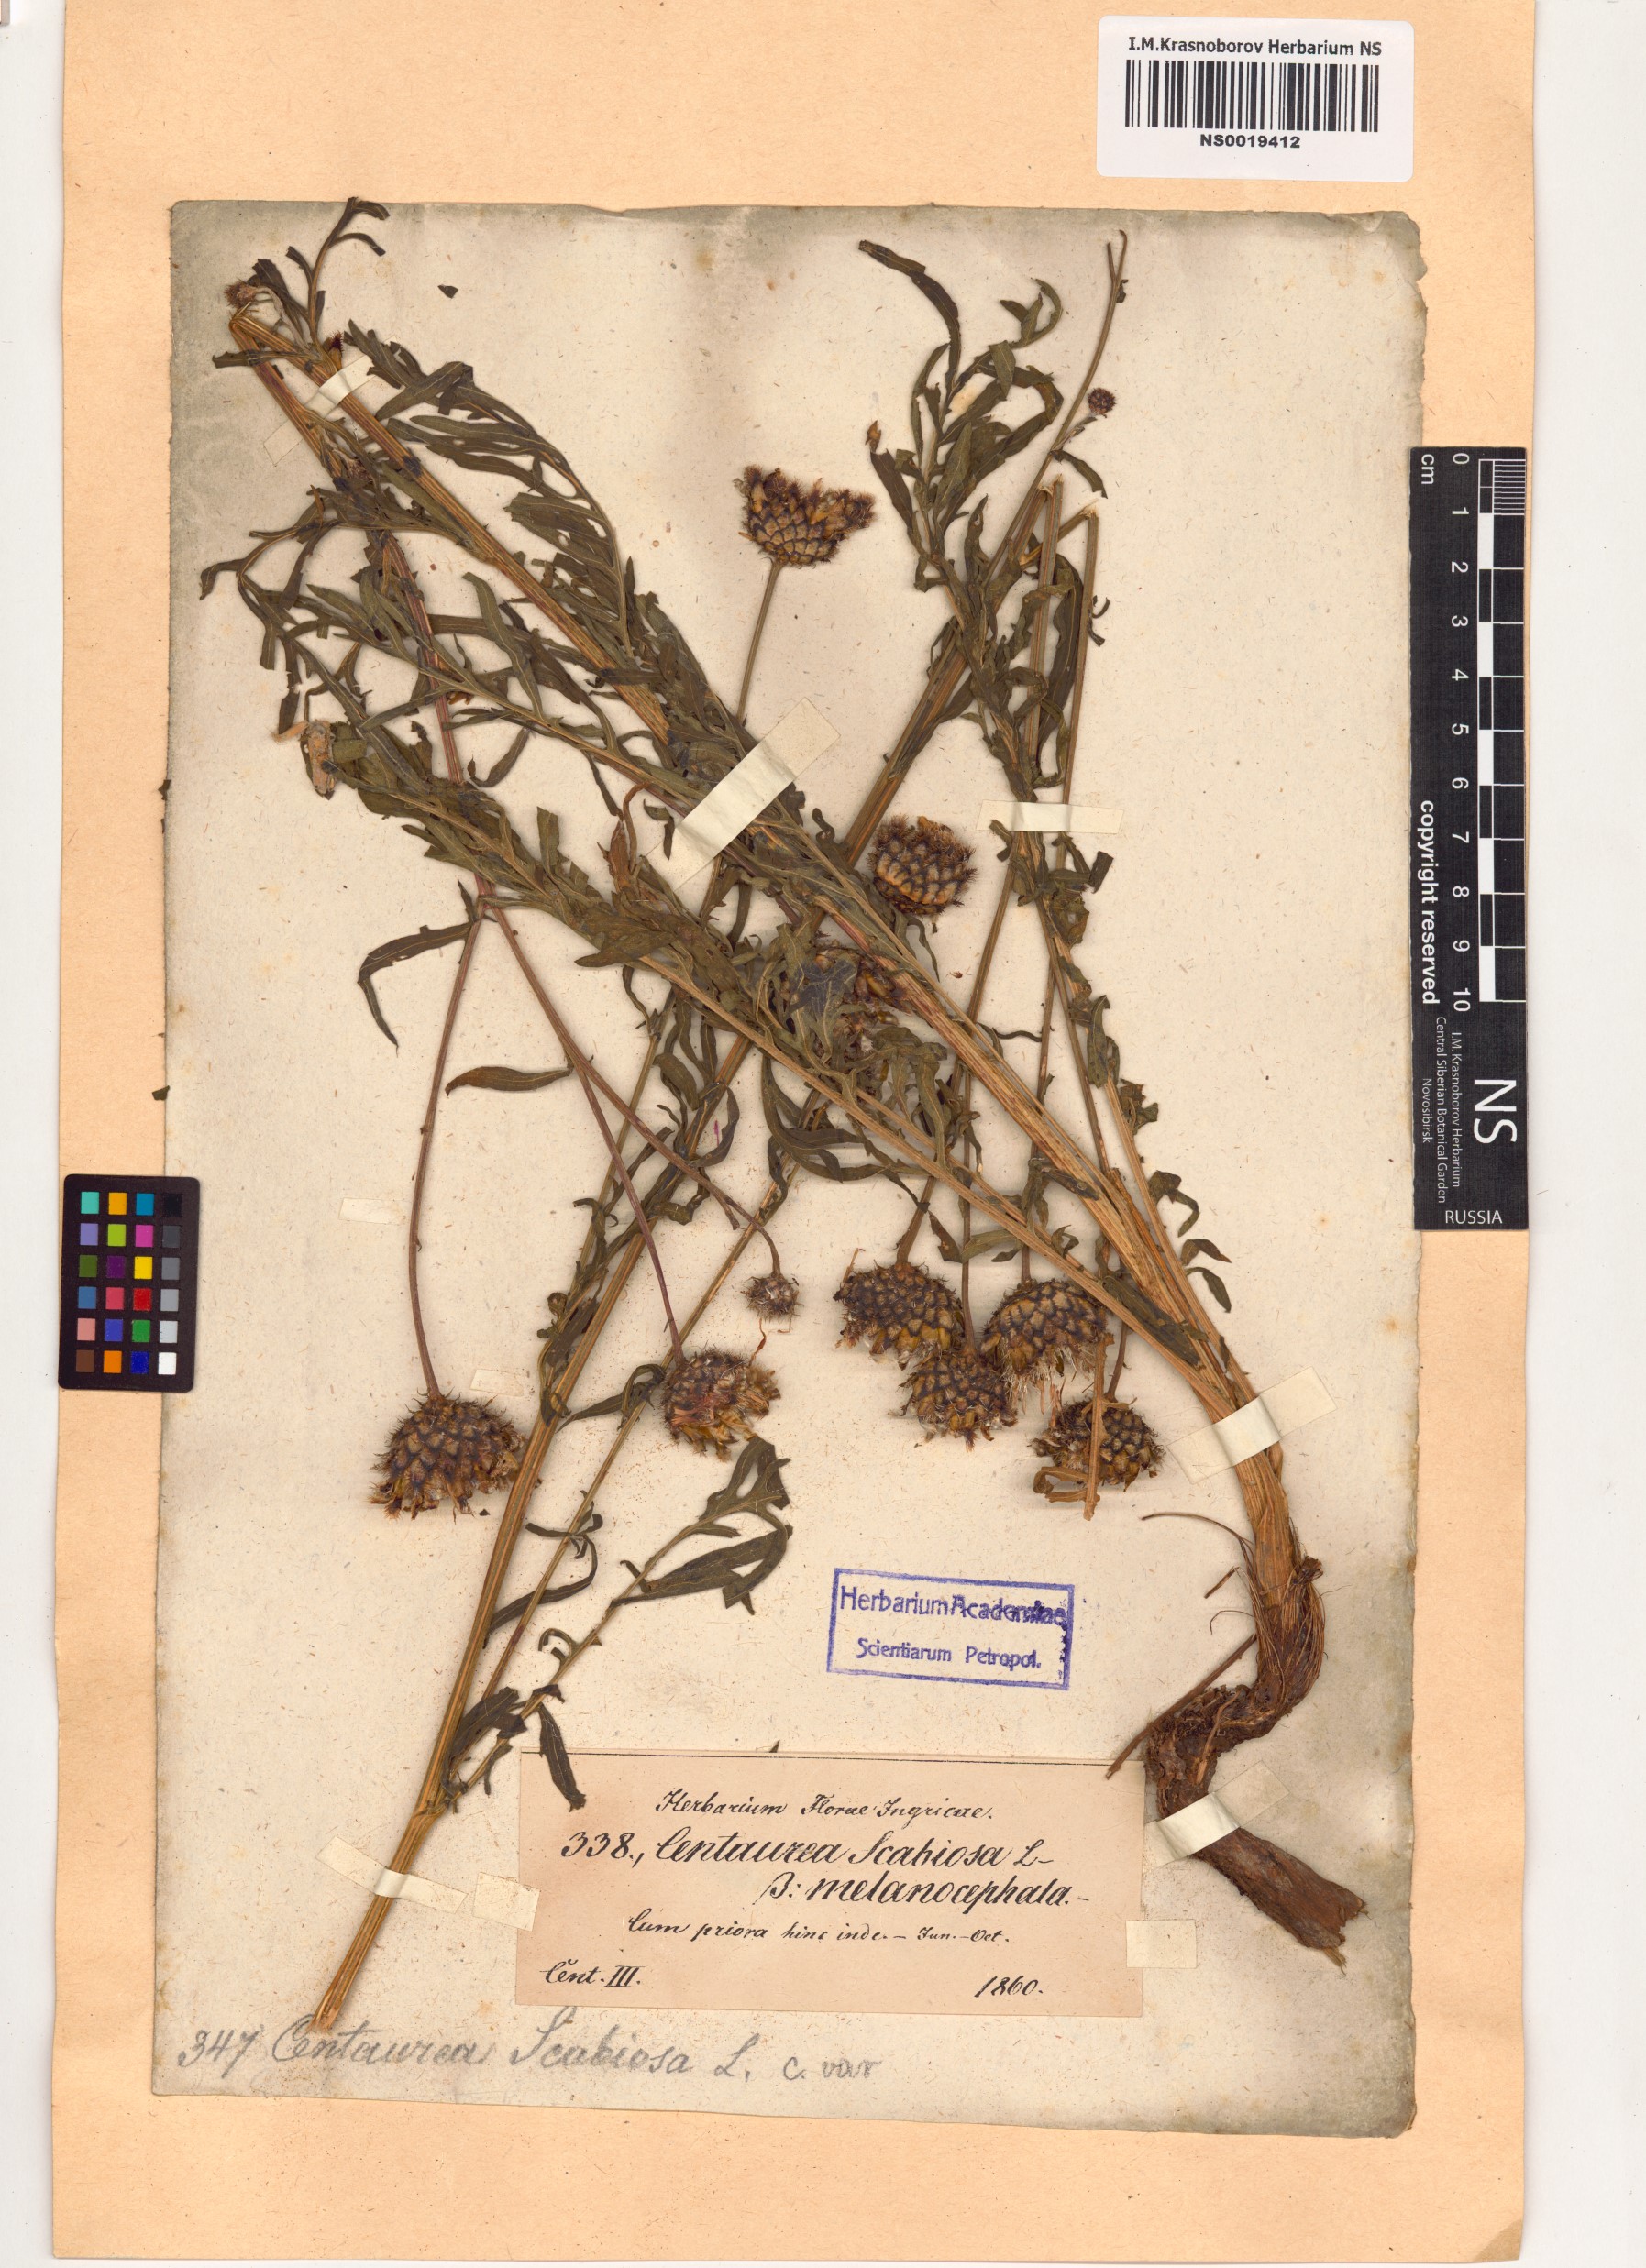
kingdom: Plantae
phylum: Tracheophyta
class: Magnoliopsida
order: Asterales
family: Asteraceae
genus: Centaurea
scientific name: Centaurea scabiosa
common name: Greater knapweed
